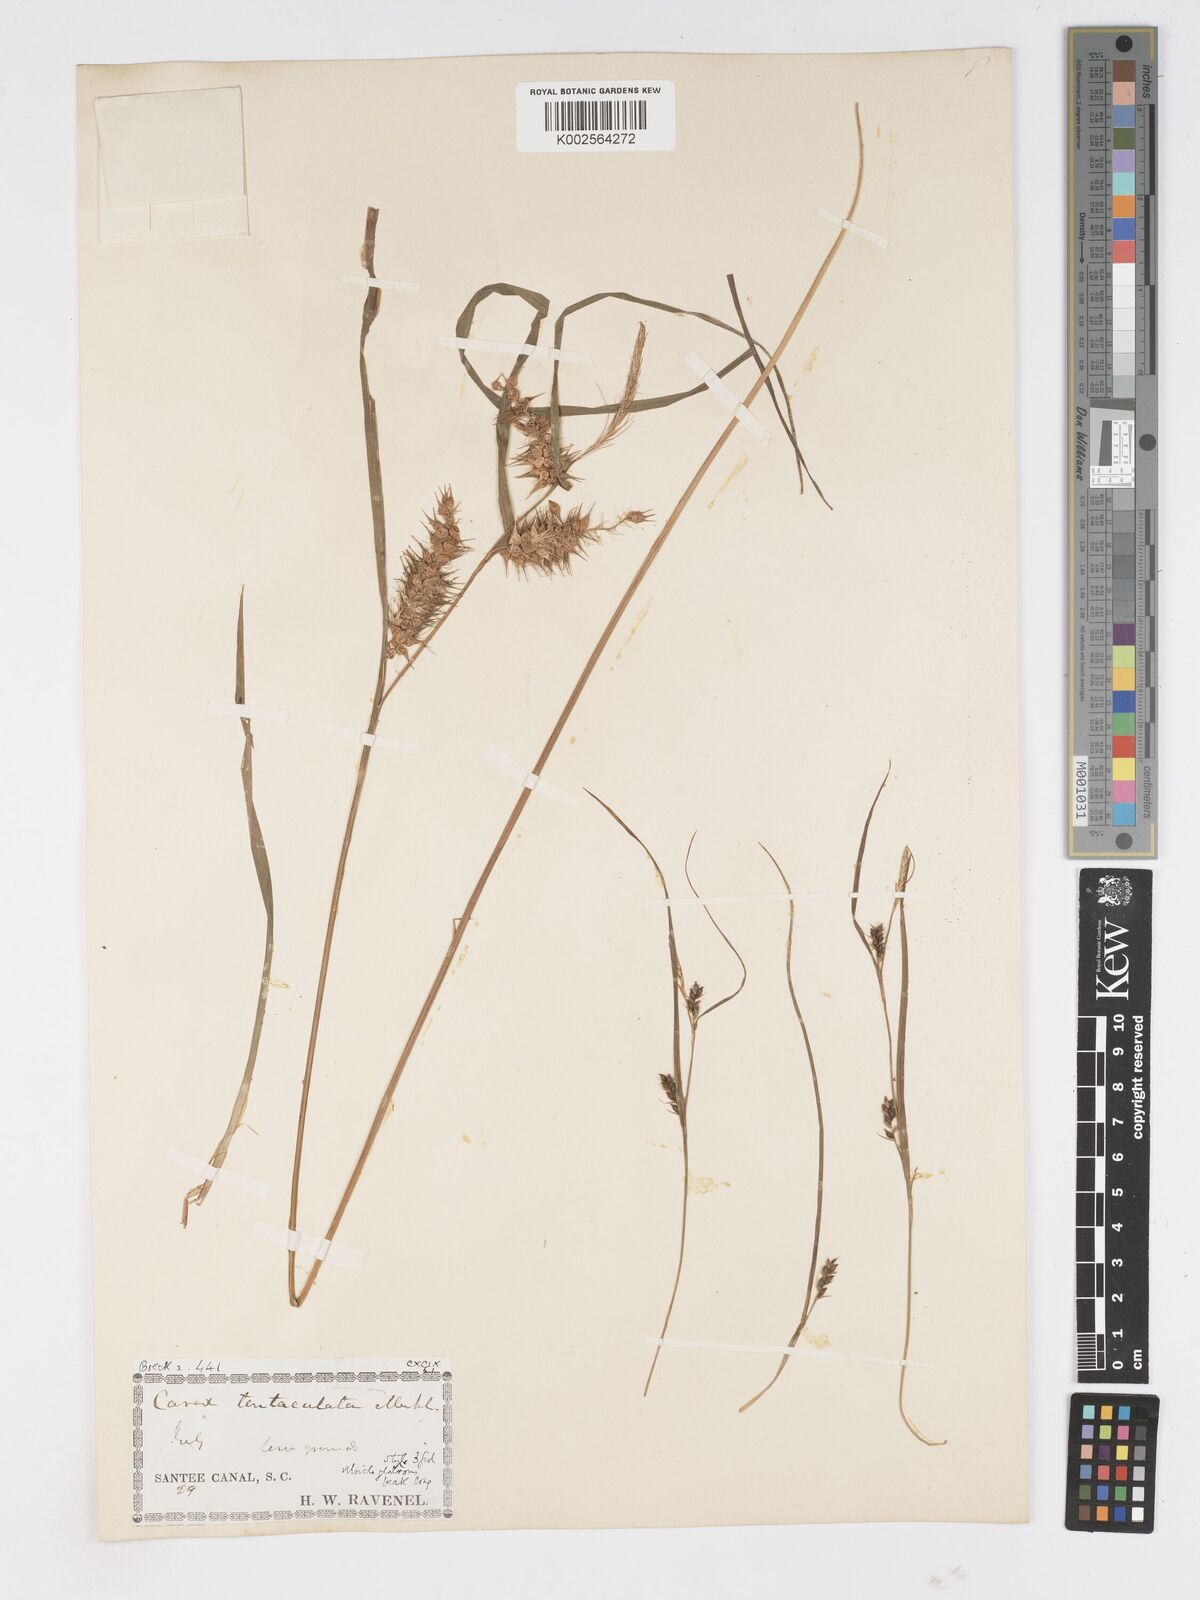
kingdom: Plantae
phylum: Tracheophyta
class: Liliopsida
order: Poales
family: Cyperaceae
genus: Carex
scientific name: Carex lurida
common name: Sallow sedge
